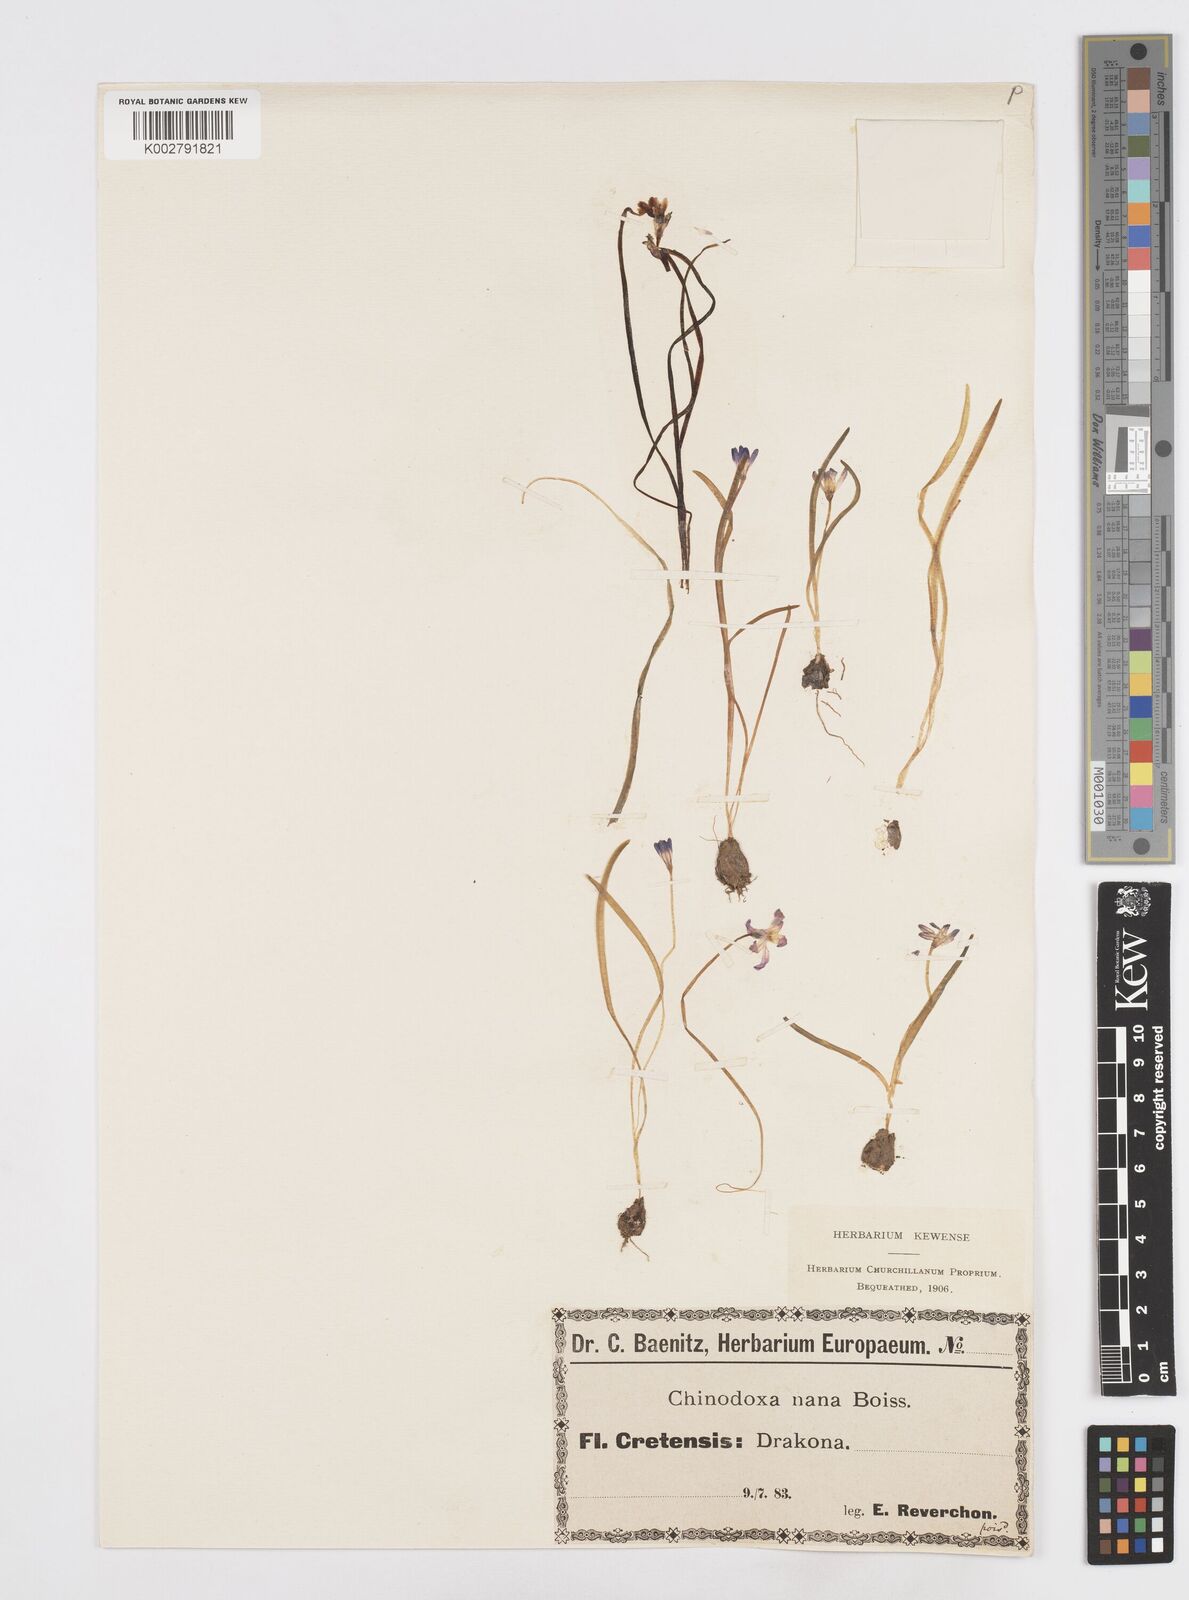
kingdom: Plantae
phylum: Tracheophyta
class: Liliopsida
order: Asparagales
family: Asparagaceae
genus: Scilla
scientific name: Scilla cretica
